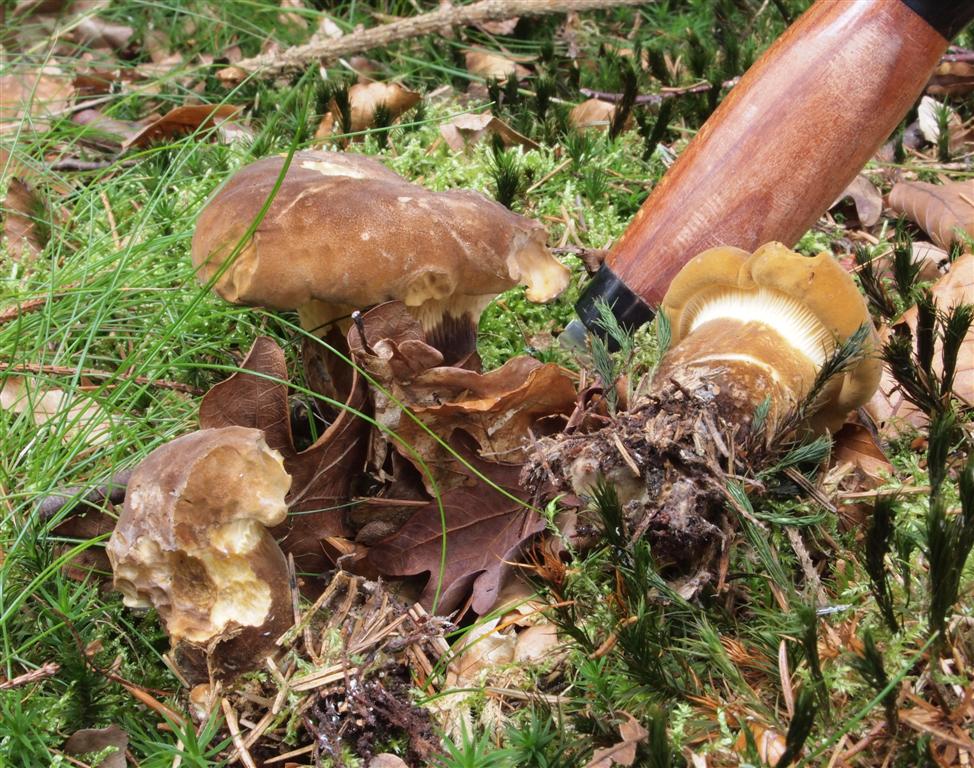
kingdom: Fungi
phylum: Basidiomycota
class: Agaricomycetes
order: Boletales
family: Tapinellaceae
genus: Tapinella
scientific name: Tapinella atrotomentosa
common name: sortfiltet viftesvamp
